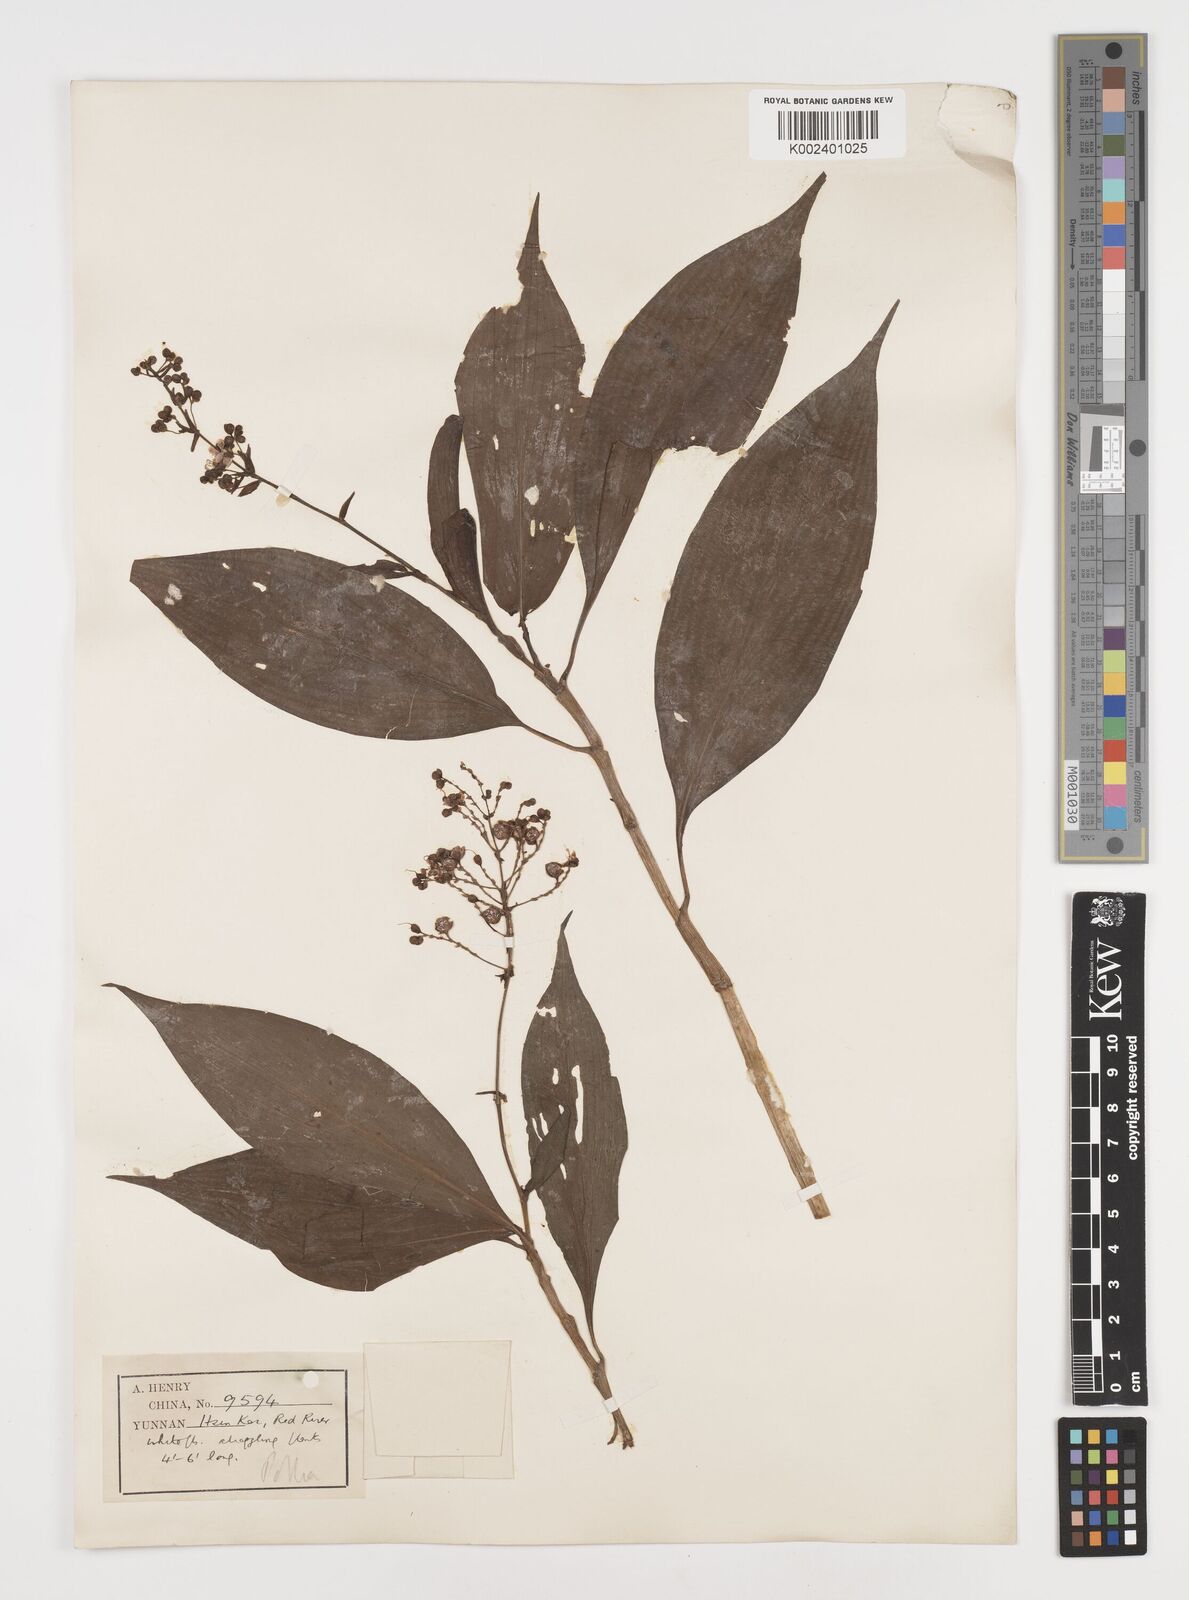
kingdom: Plantae
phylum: Tracheophyta
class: Liliopsida
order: Commelinales
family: Commelinaceae
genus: Pollia
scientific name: Pollia
